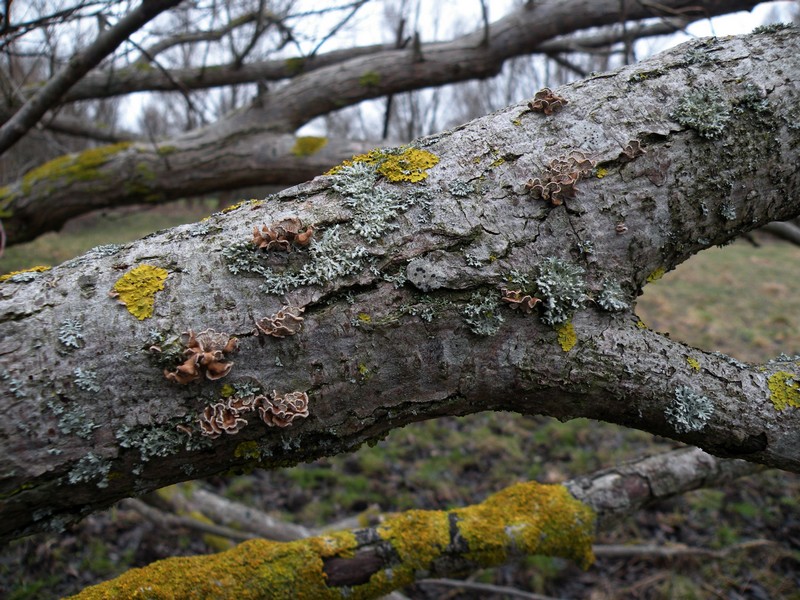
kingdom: Fungi
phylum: Basidiomycota
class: Agaricomycetes
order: Amylocorticiales
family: Amylocorticiaceae
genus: Plicaturopsis
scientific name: Plicaturopsis crispa
